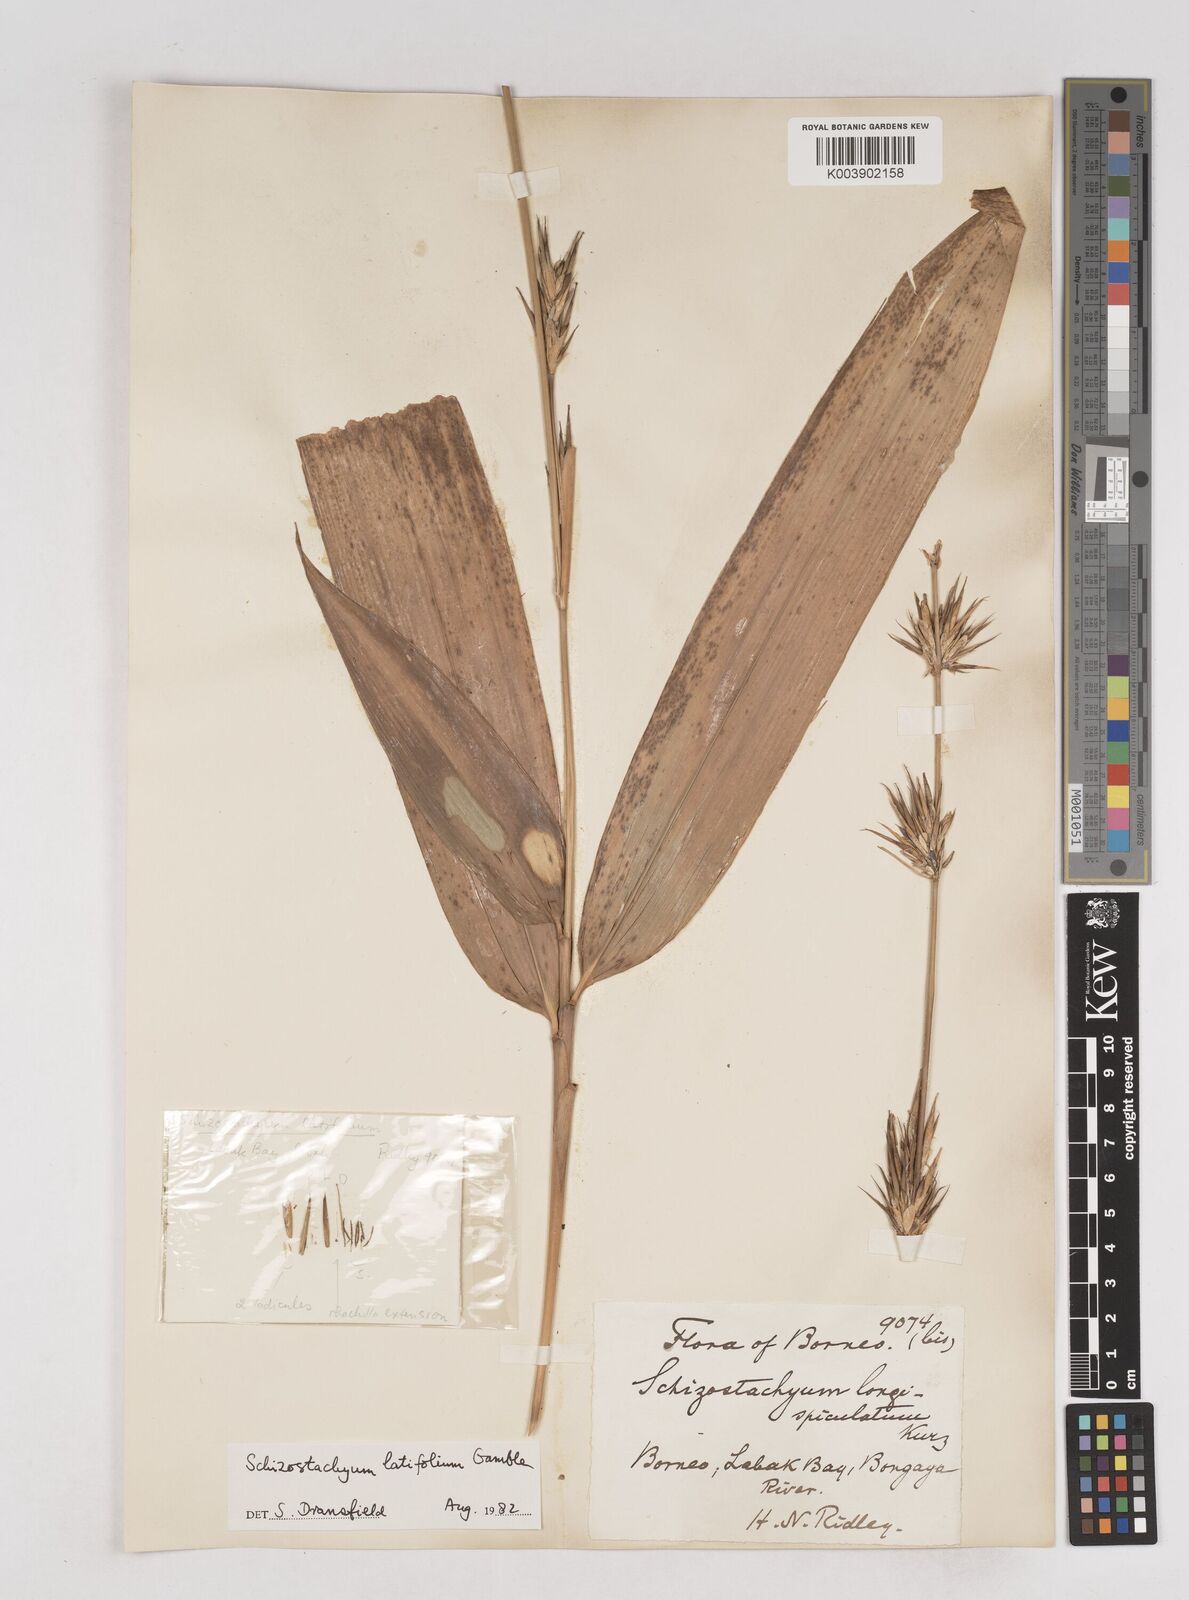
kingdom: Plantae
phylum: Tracheophyta
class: Liliopsida
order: Poales
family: Poaceae
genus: Schizostachyum
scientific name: Schizostachyum blumei
